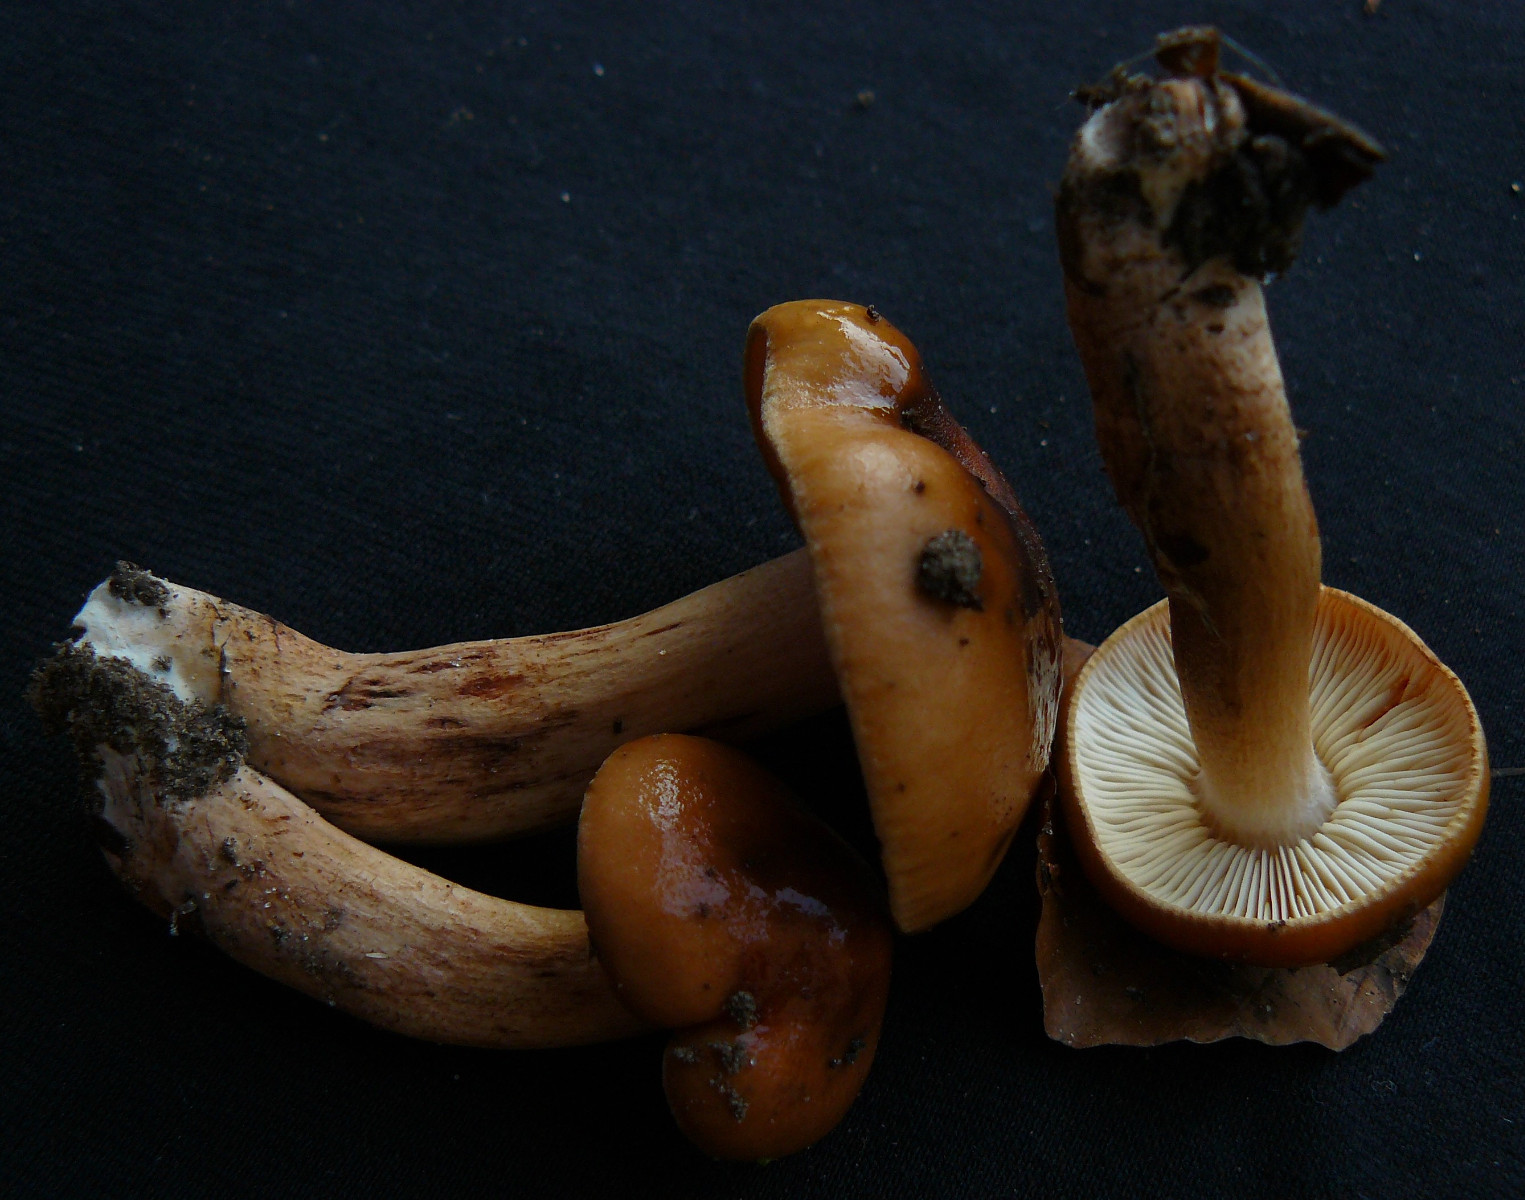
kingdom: Fungi
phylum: Basidiomycota
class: Agaricomycetes
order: Agaricales
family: Tricholomataceae
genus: Tricholoma
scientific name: Tricholoma ustale
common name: sveden ridderhat
